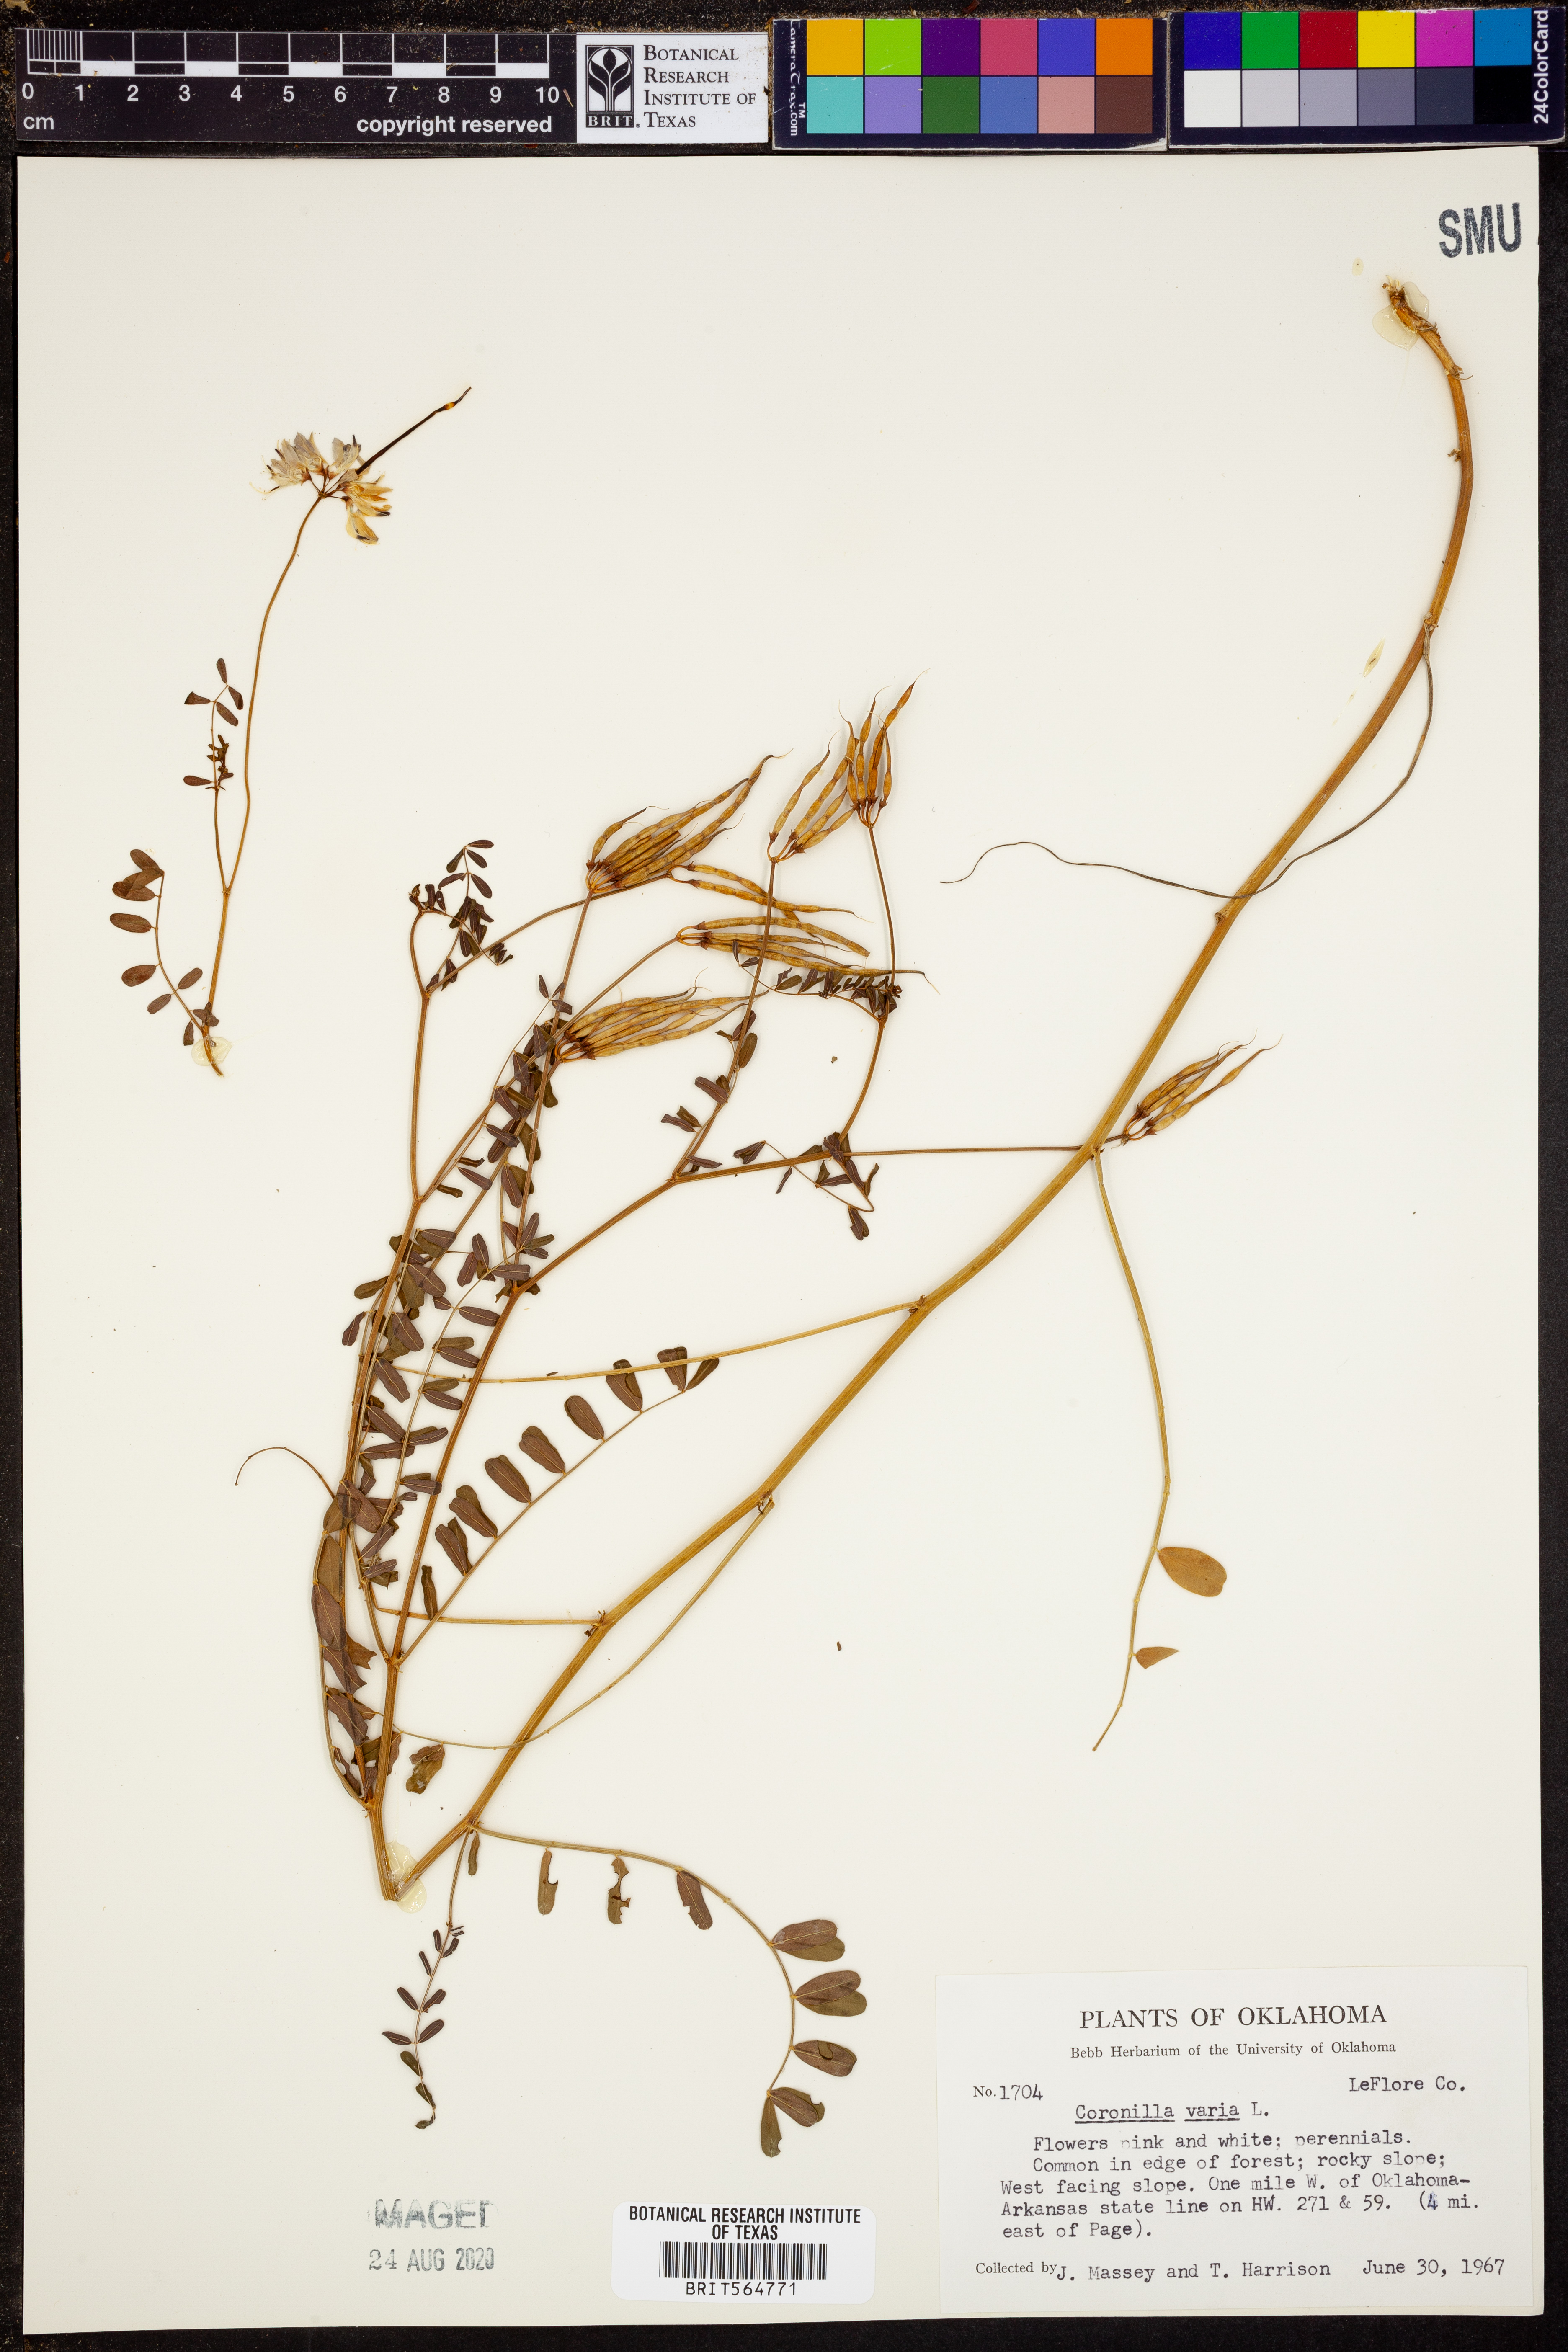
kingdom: Plantae
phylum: Tracheophyta
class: Magnoliopsida
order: Fabales
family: Fabaceae
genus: Coronilla
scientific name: Coronilla varia
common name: Crownvetch
